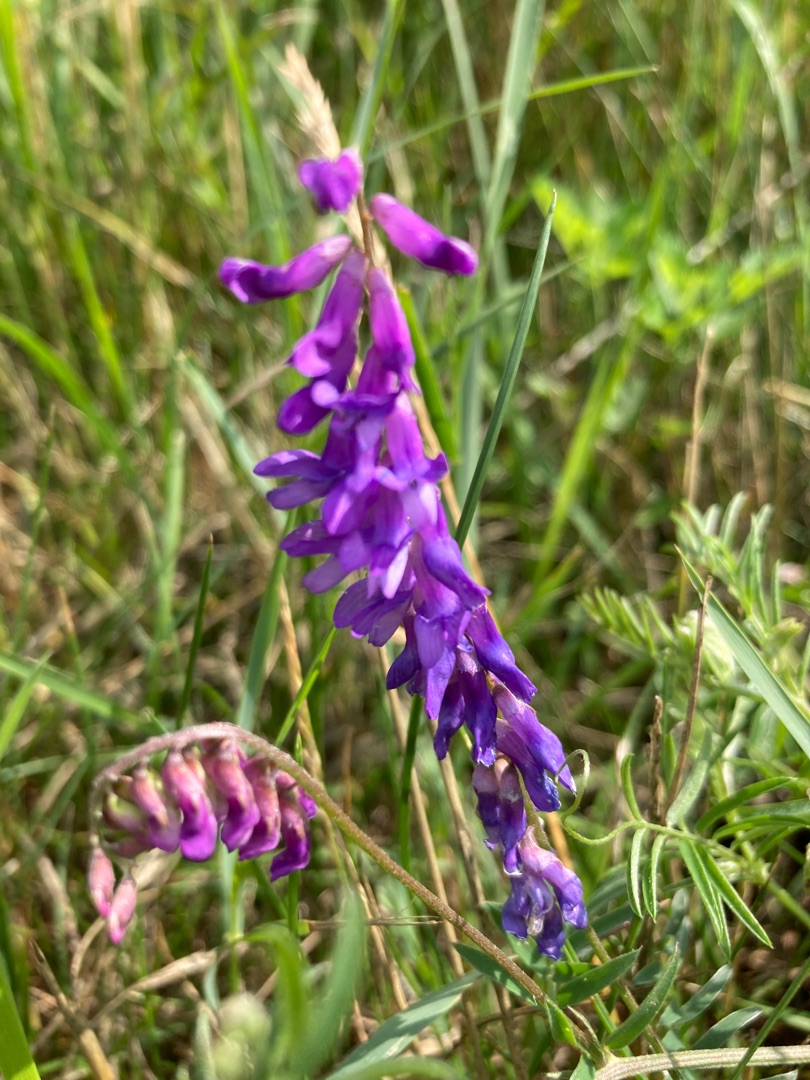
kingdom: Plantae
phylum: Tracheophyta
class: Magnoliopsida
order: Fabales
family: Fabaceae
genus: Vicia
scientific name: Vicia cracca
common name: Muse-vikke
